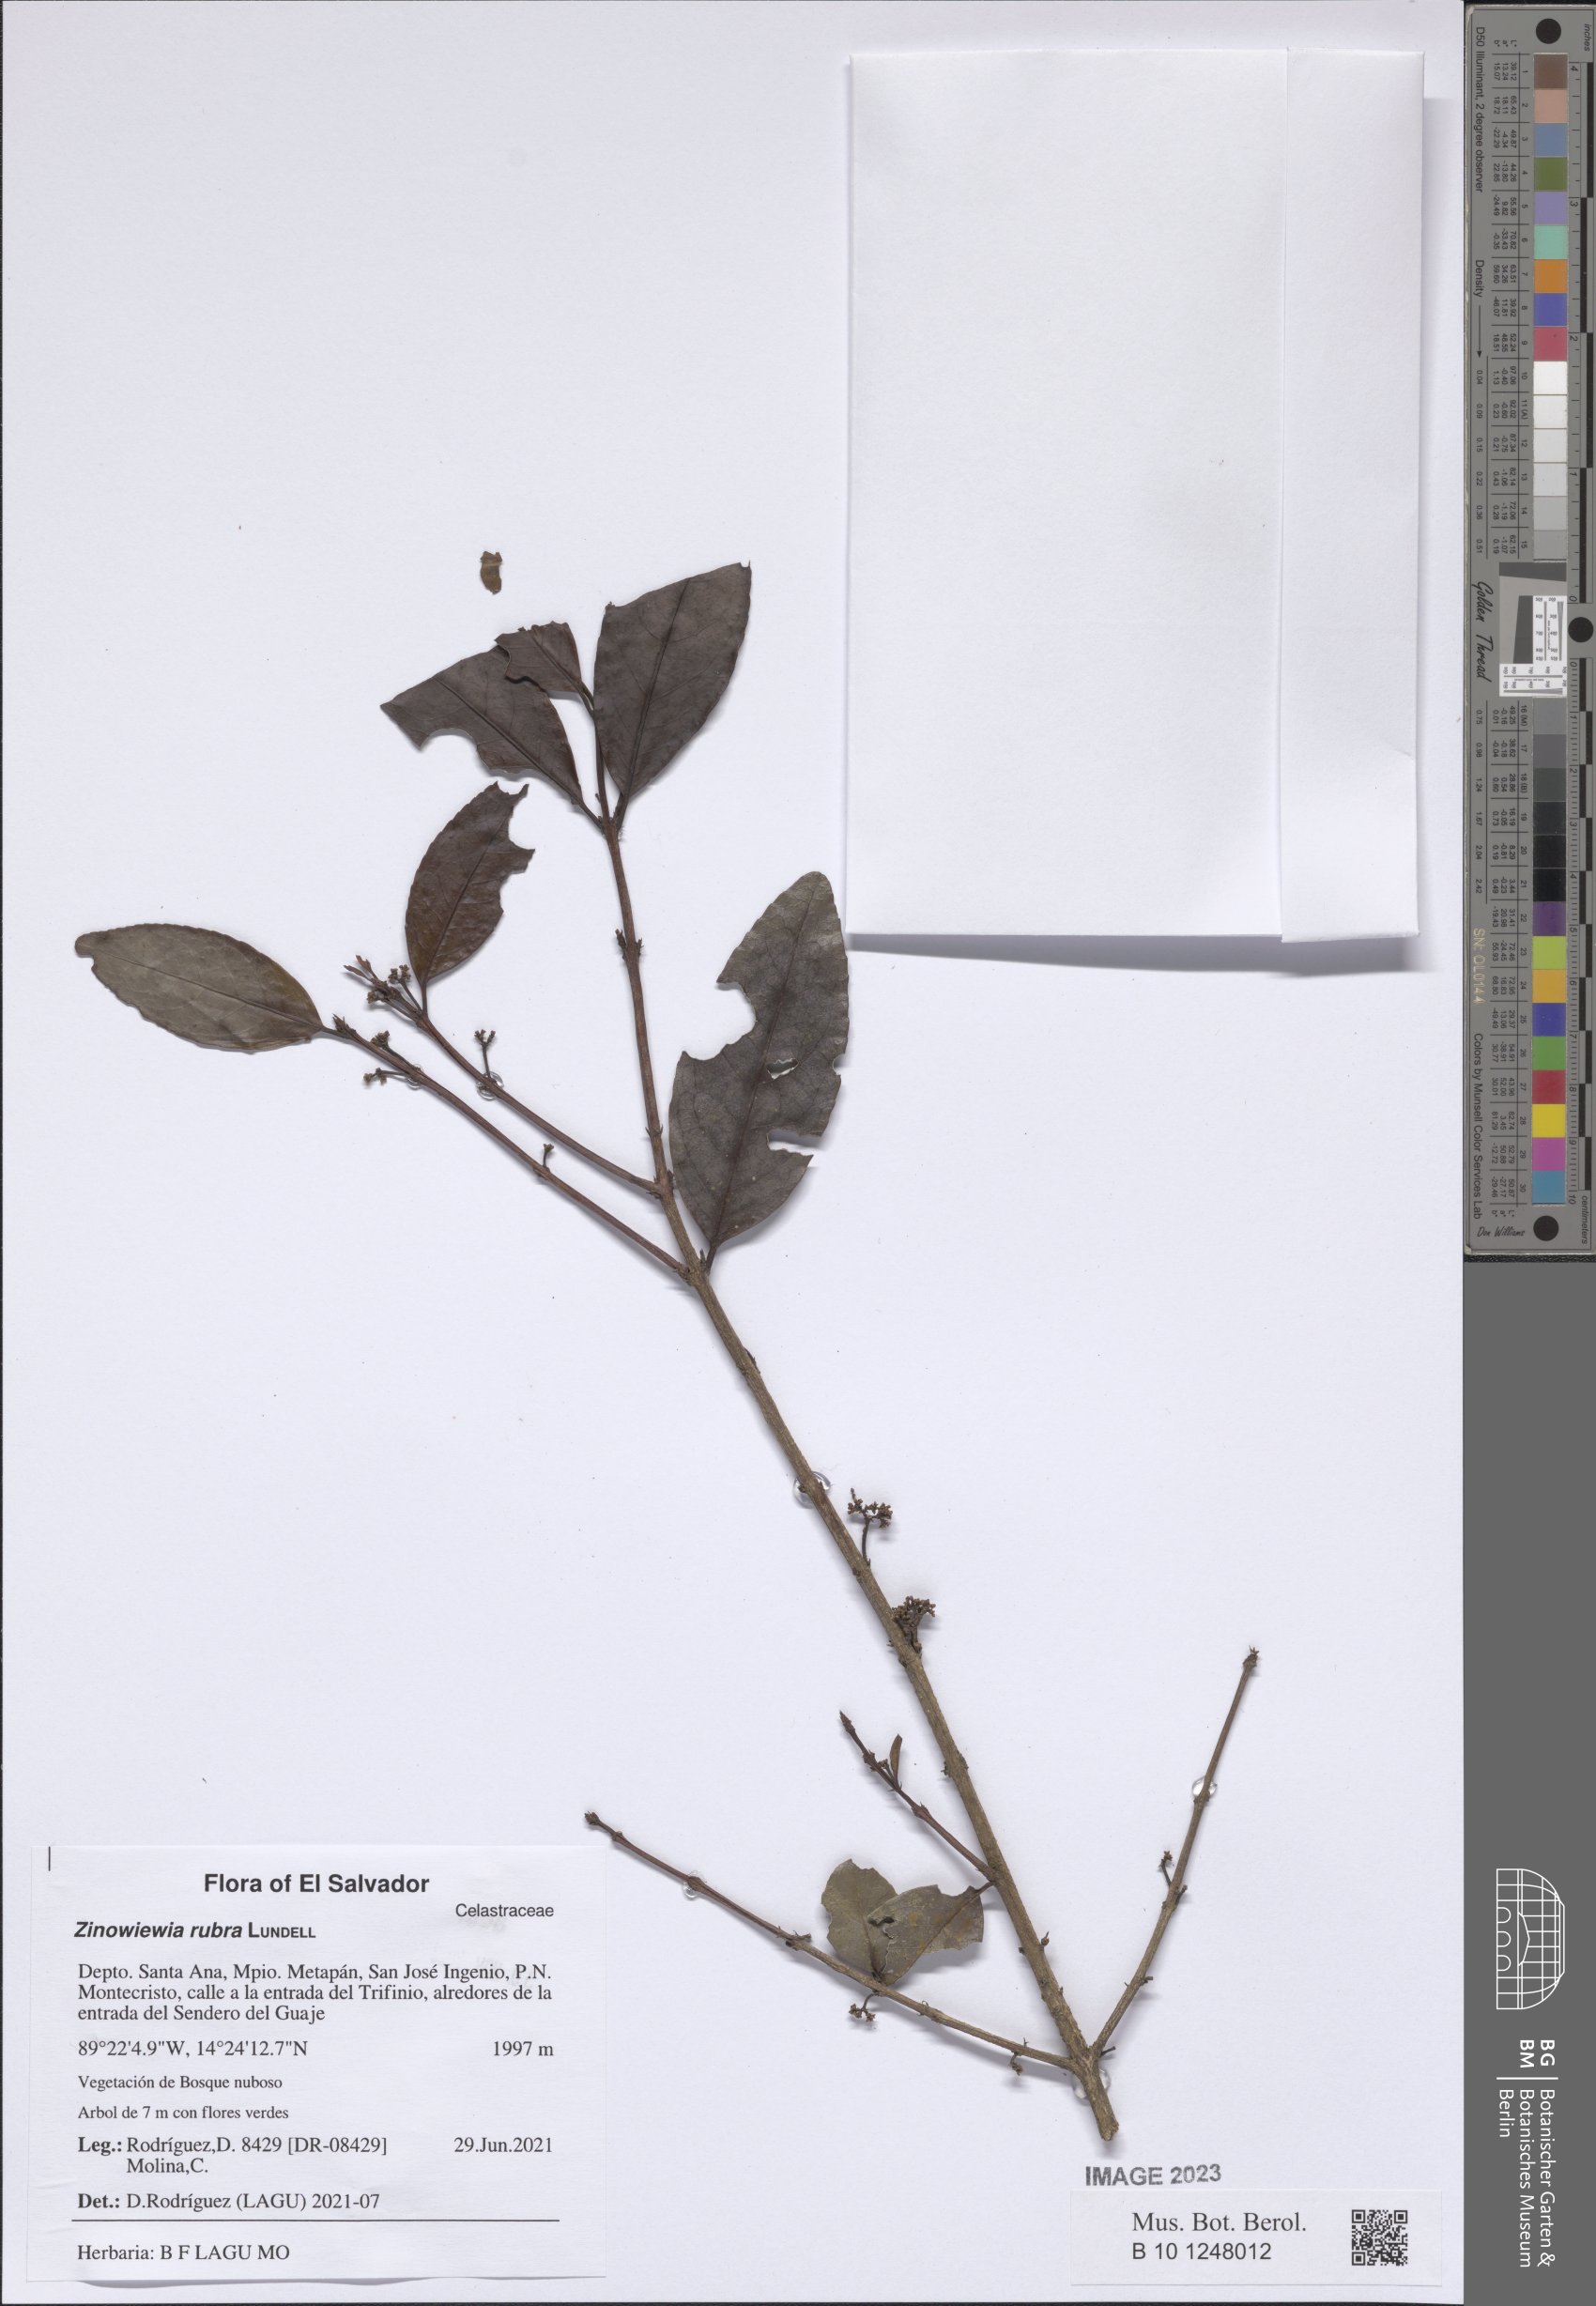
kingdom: Plantae
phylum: Tracheophyta
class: Magnoliopsida
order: Celastrales
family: Celastraceae
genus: Zinowiewia
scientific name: Zinowiewia rubra
